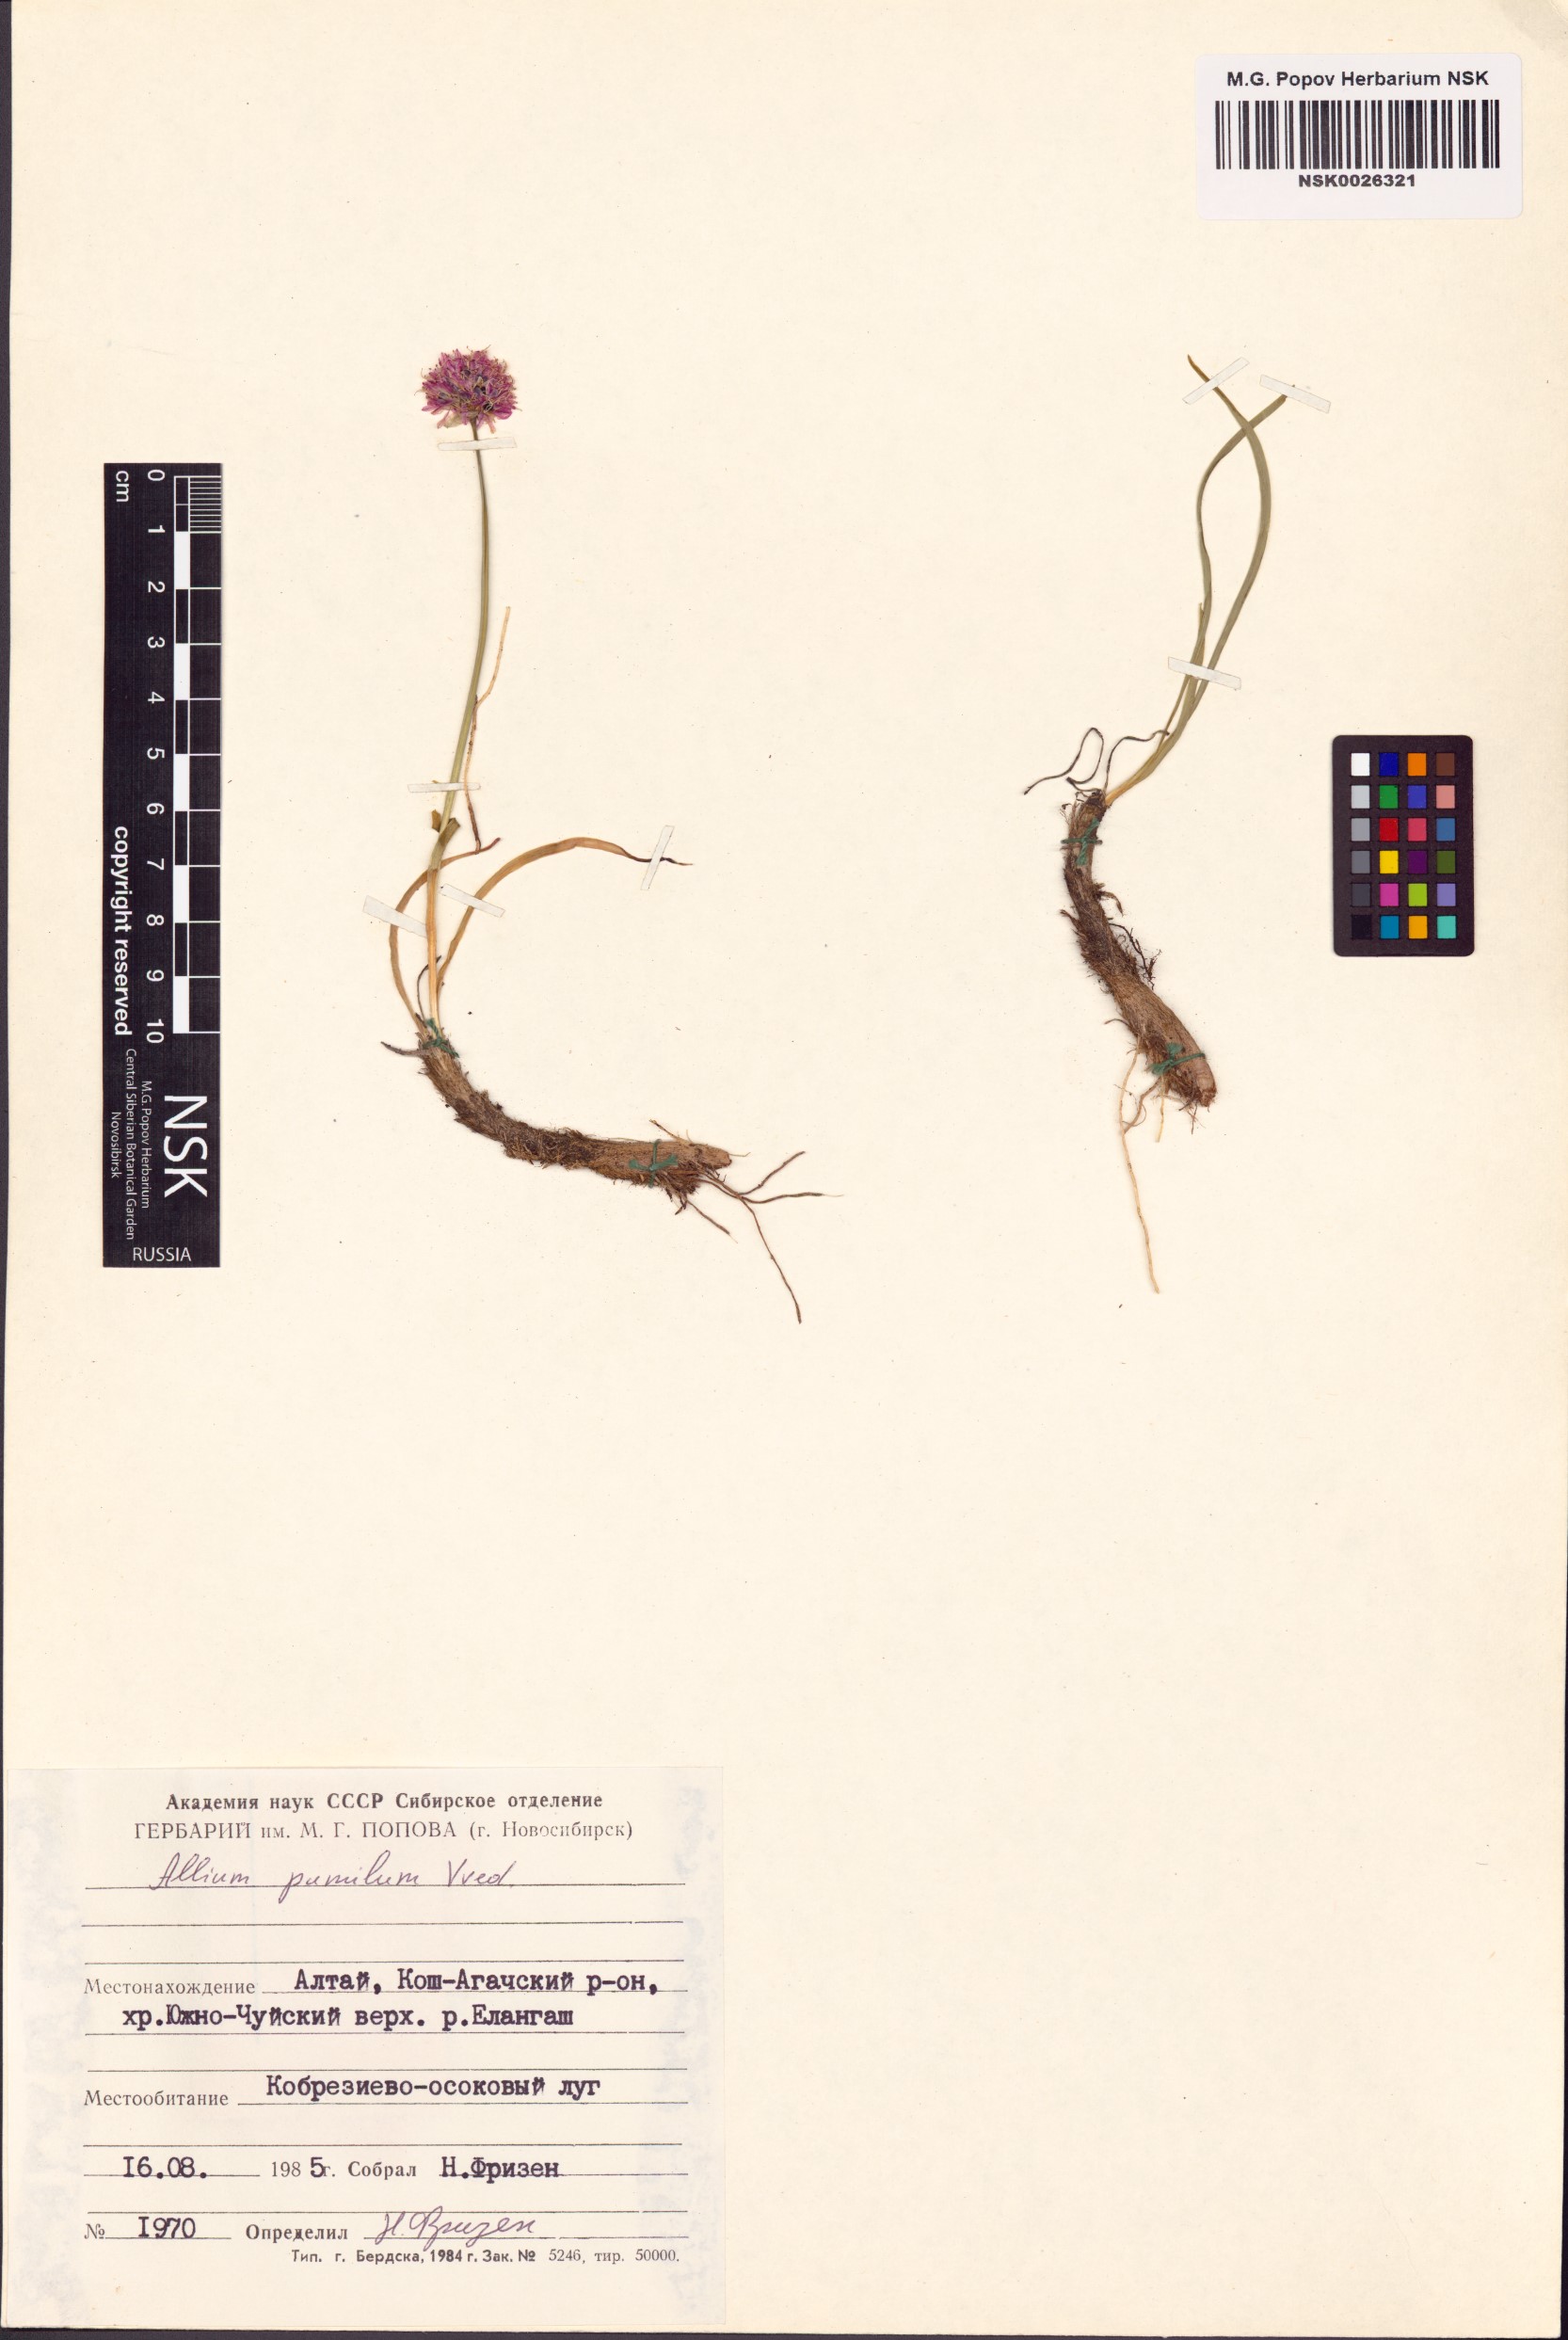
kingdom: Plantae
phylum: Tracheophyta
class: Liliopsida
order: Asparagales
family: Amaryllidaceae
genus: Allium
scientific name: Allium pumilum
